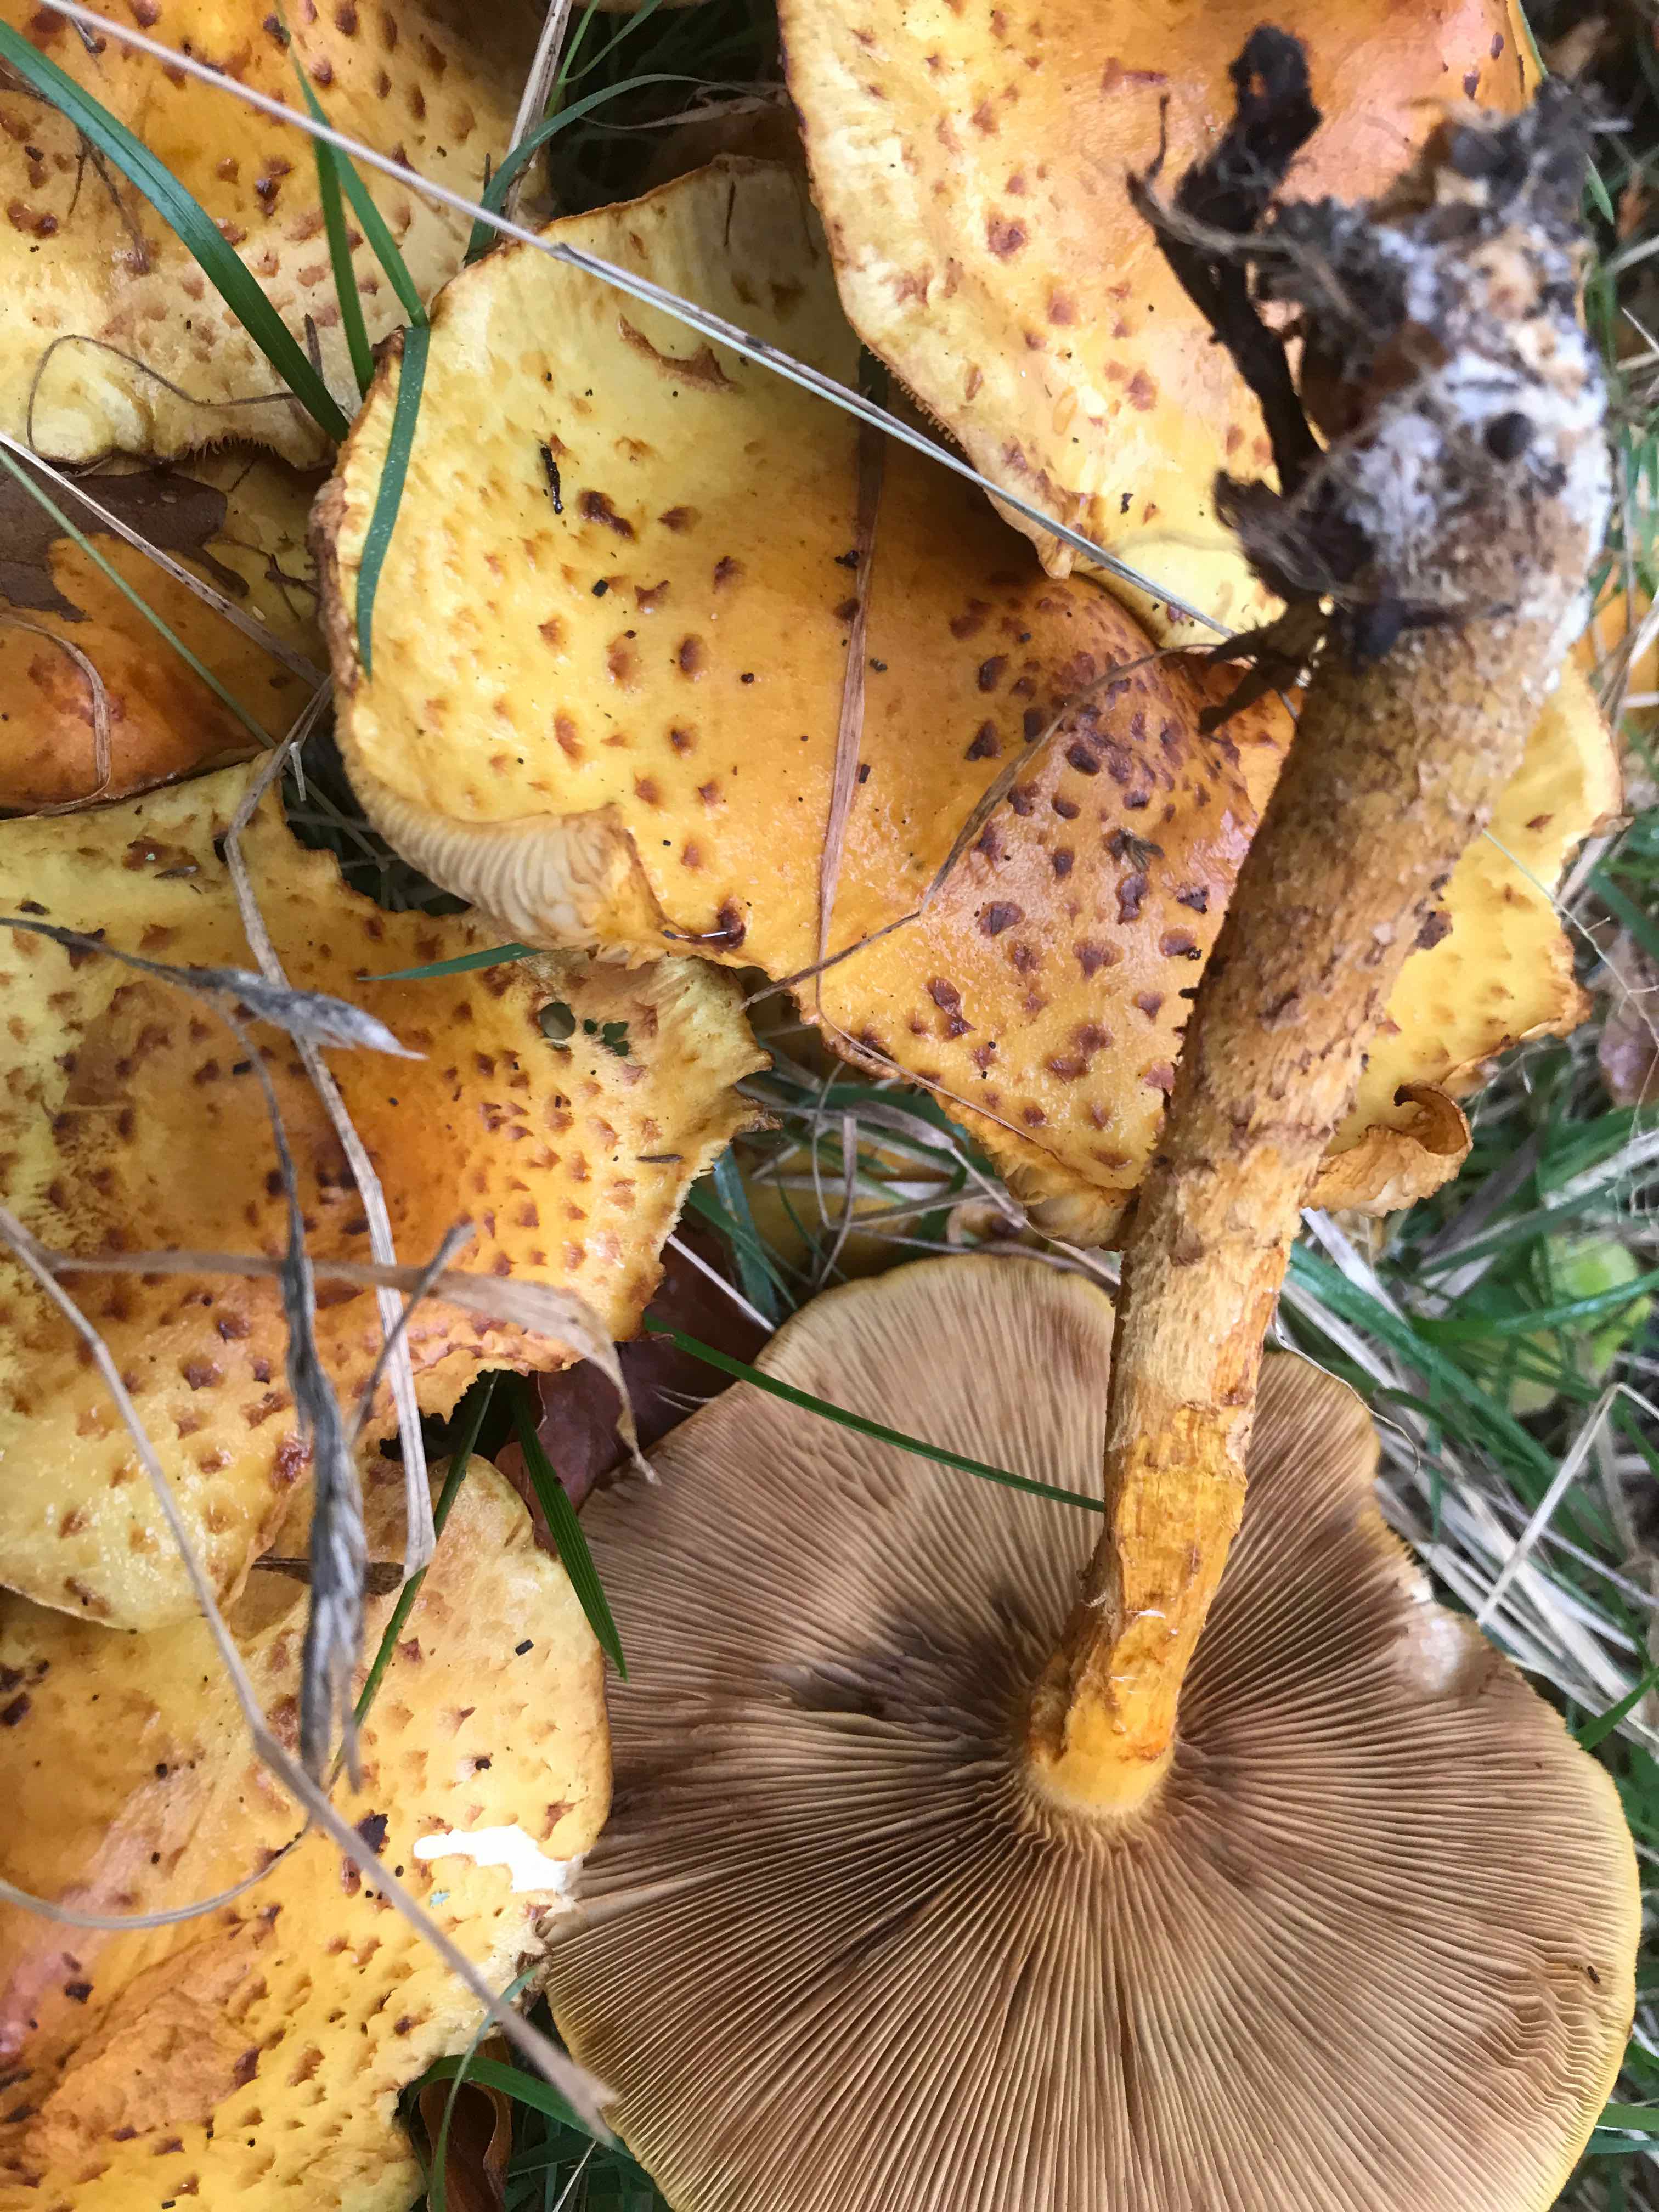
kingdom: Fungi
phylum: Basidiomycota
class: Agaricomycetes
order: Agaricales
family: Strophariaceae
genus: Pholiota
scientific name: Pholiota jahnii
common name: slimet skælhat
